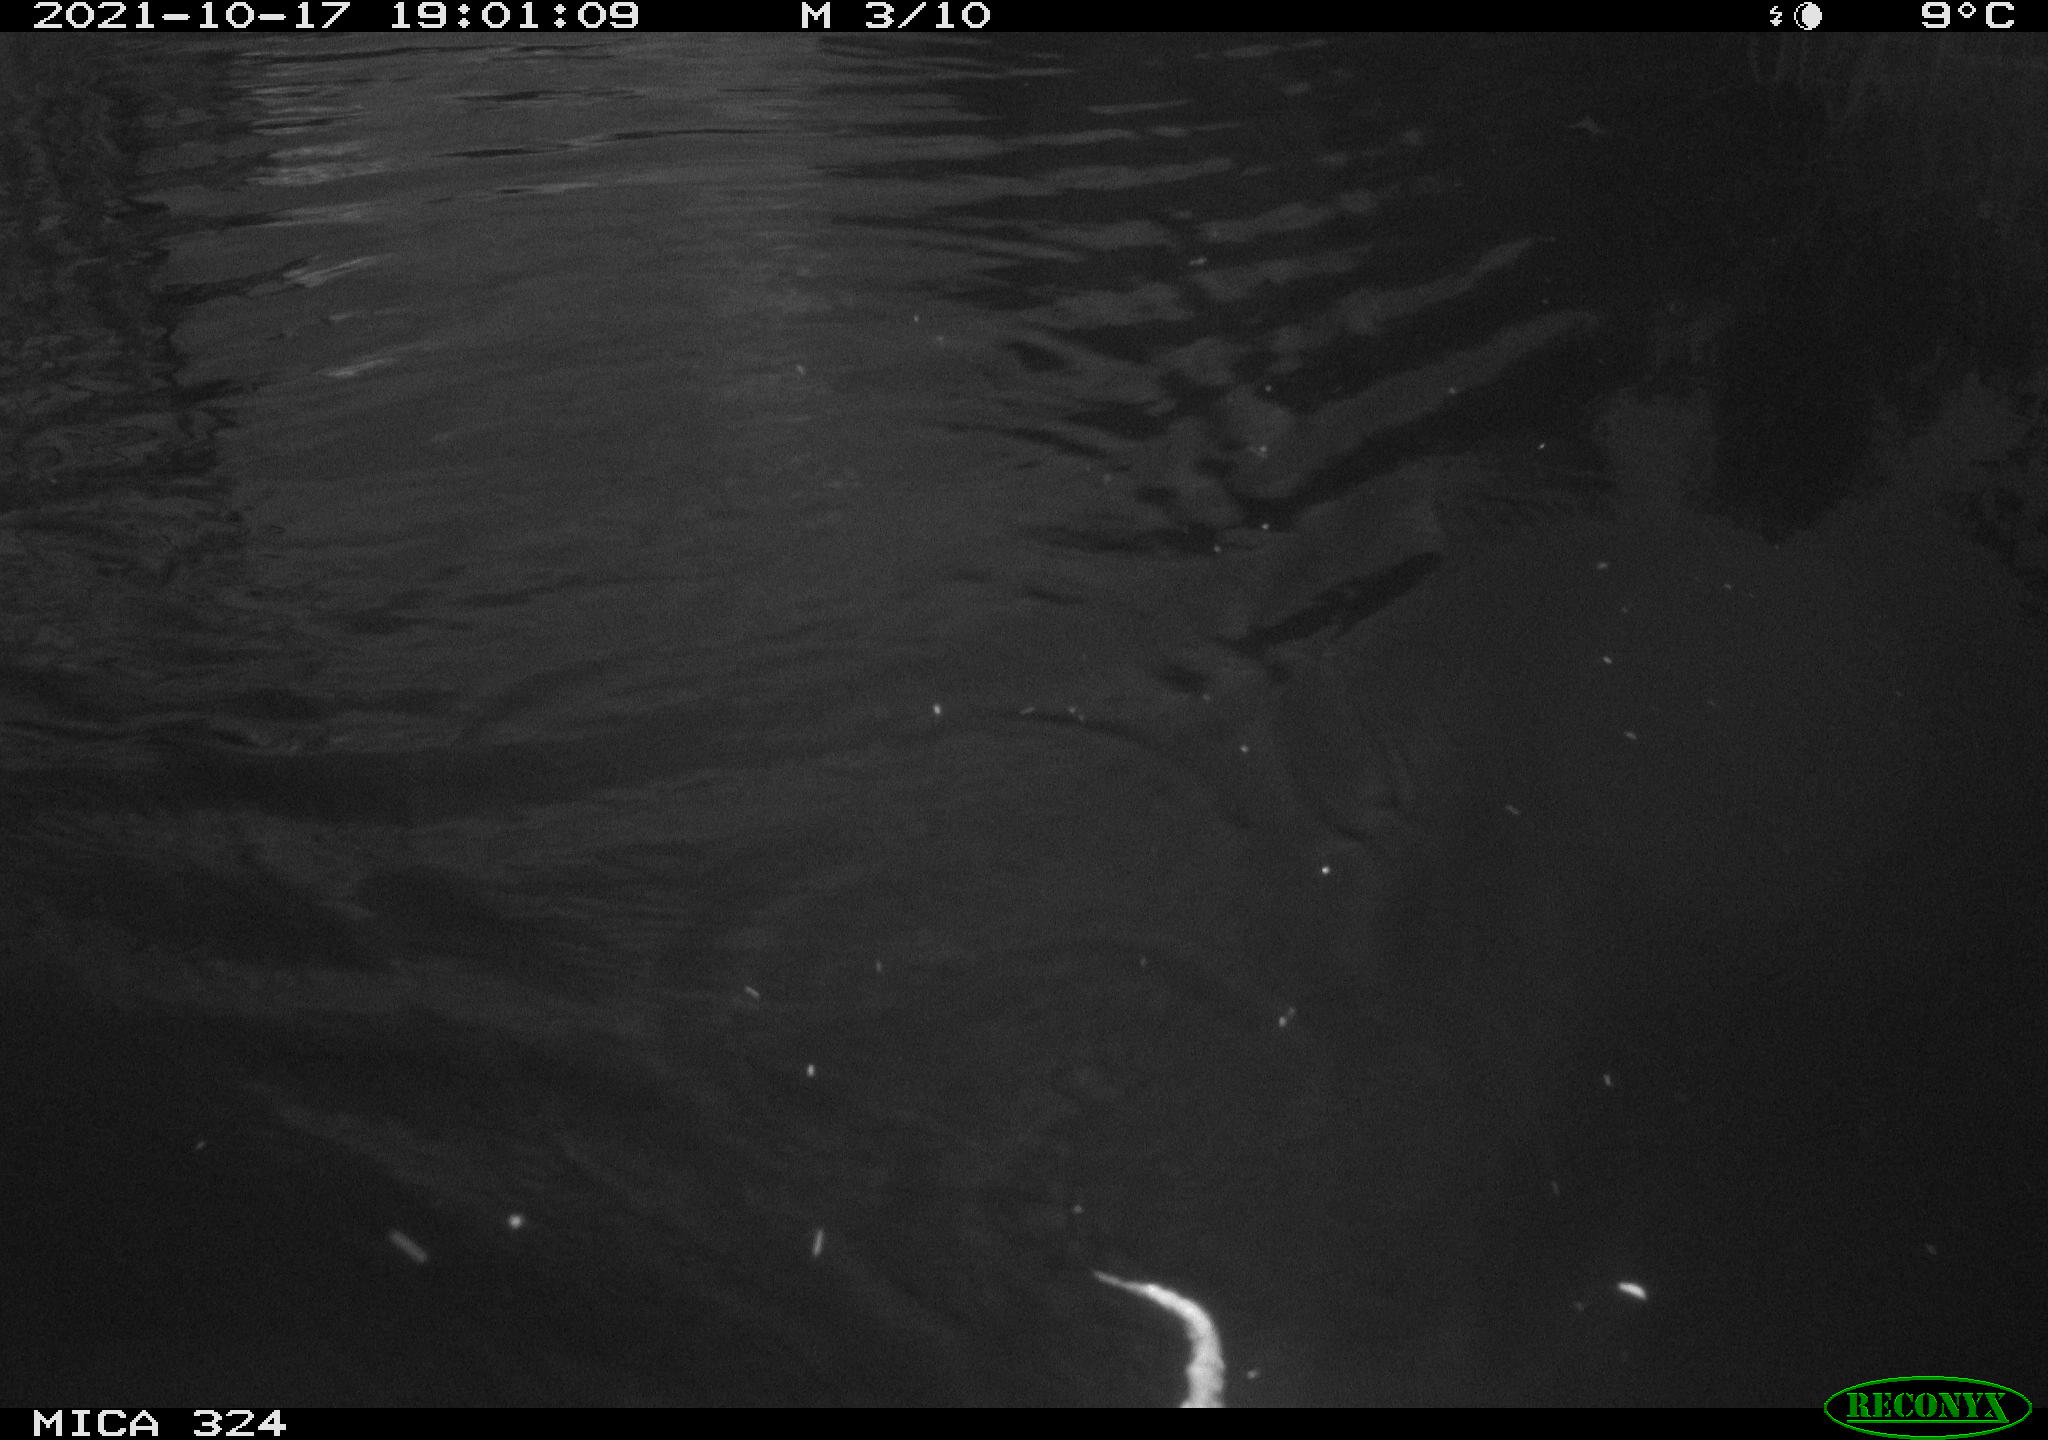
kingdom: Animalia
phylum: Chordata
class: Mammalia
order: Rodentia
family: Cricetidae
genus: Ondatra
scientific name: Ondatra zibethicus
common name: Muskrat
